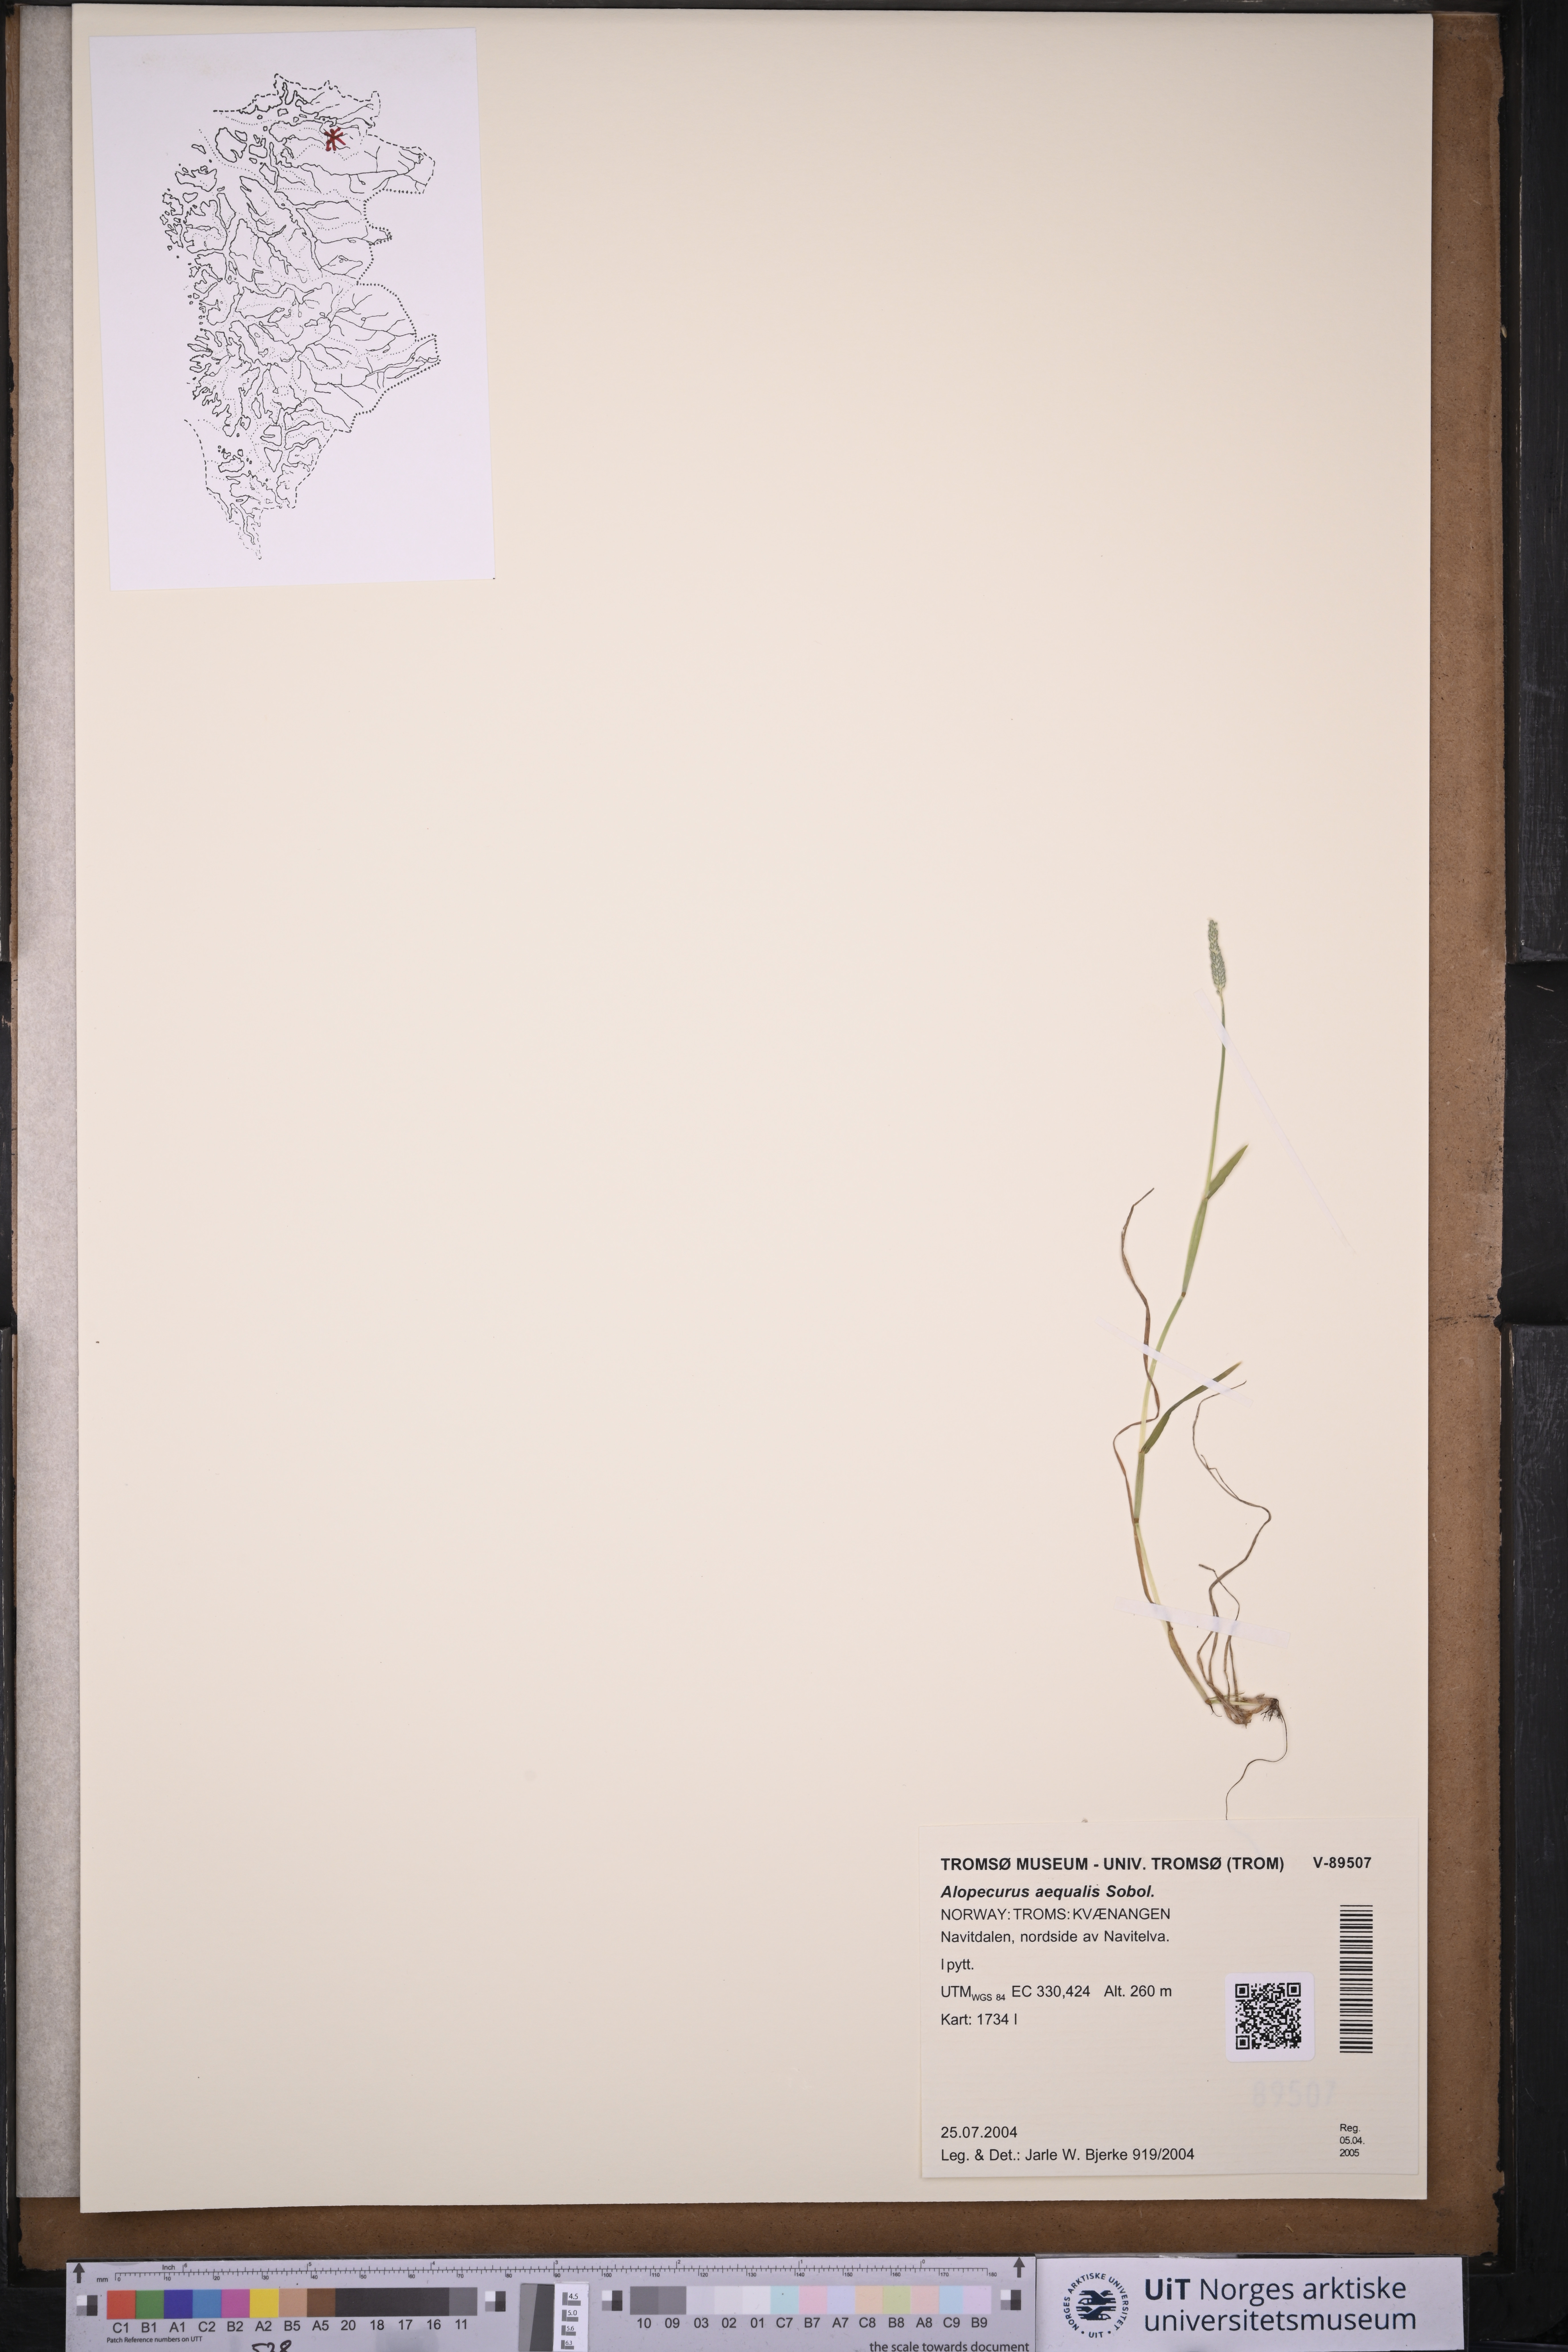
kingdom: Plantae
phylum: Tracheophyta
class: Liliopsida
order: Poales
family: Poaceae
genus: Alopecurus
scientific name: Alopecurus aequalis
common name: Orange foxtail
